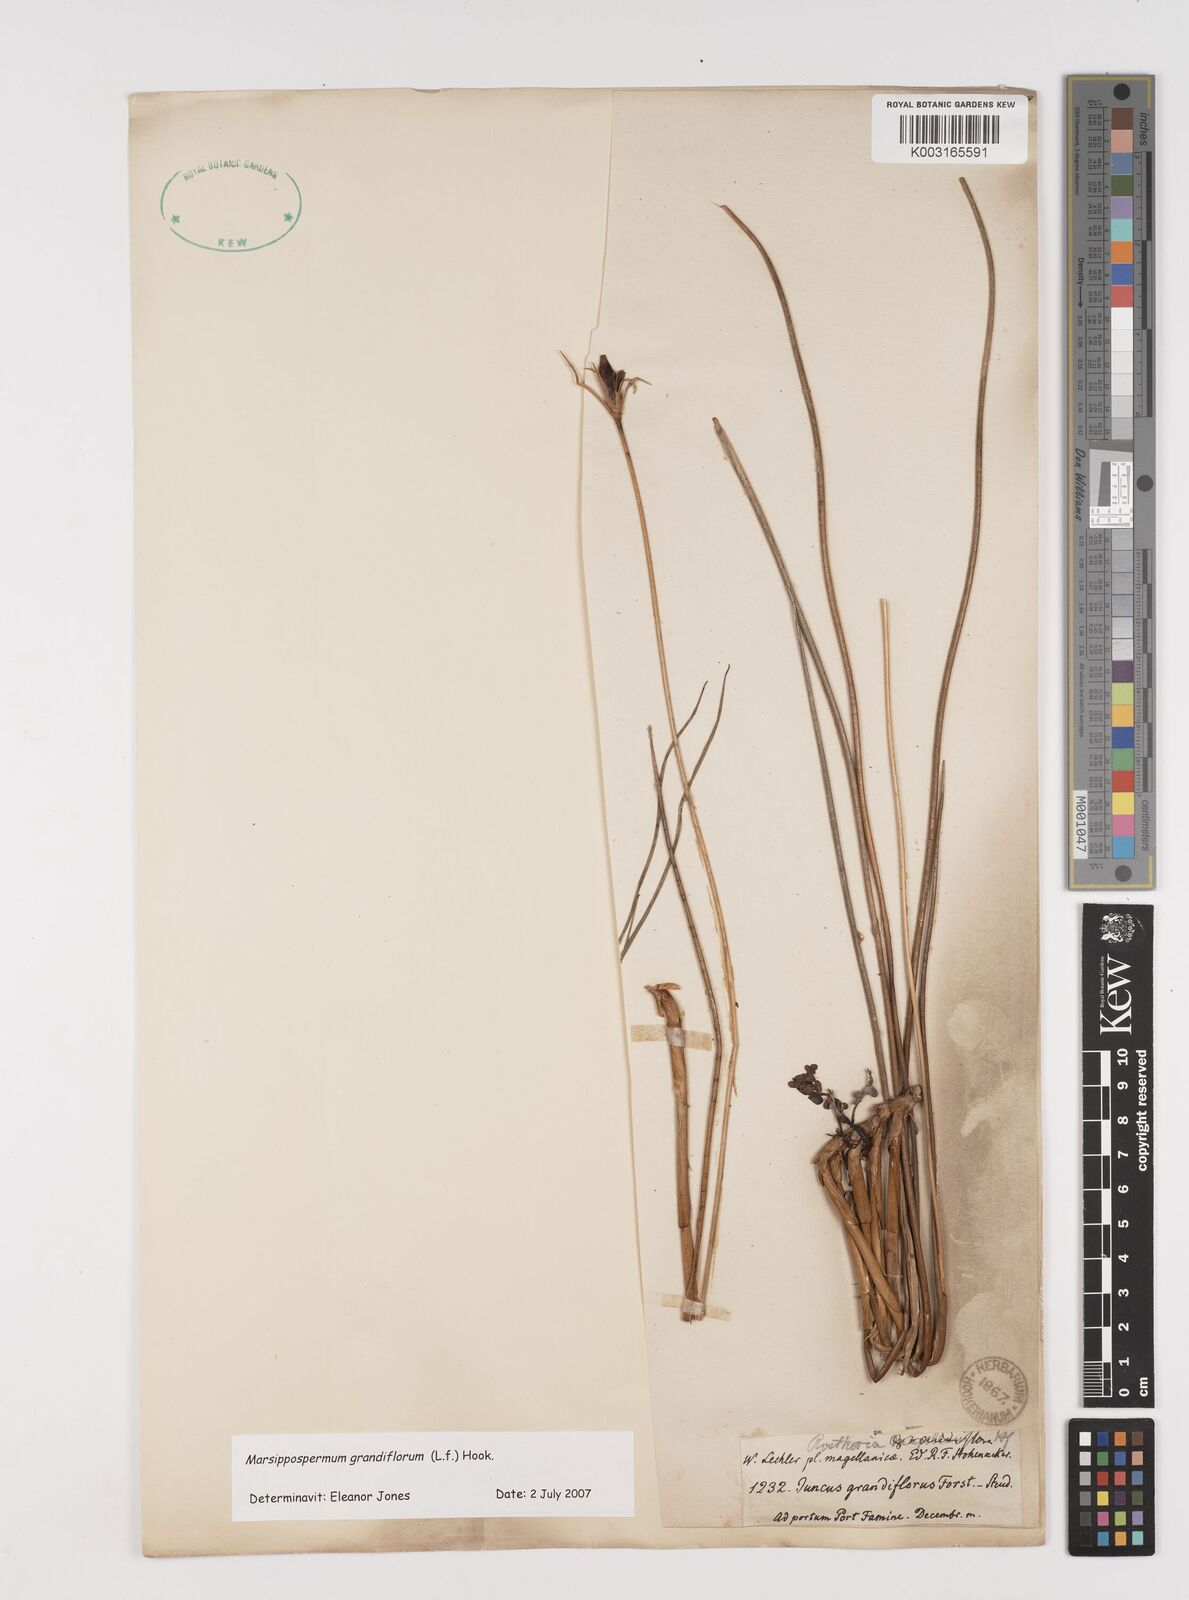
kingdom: Plantae
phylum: Tracheophyta
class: Liliopsida
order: Poales
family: Juncaceae
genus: Marsippospermum
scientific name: Marsippospermum grandiflorum
